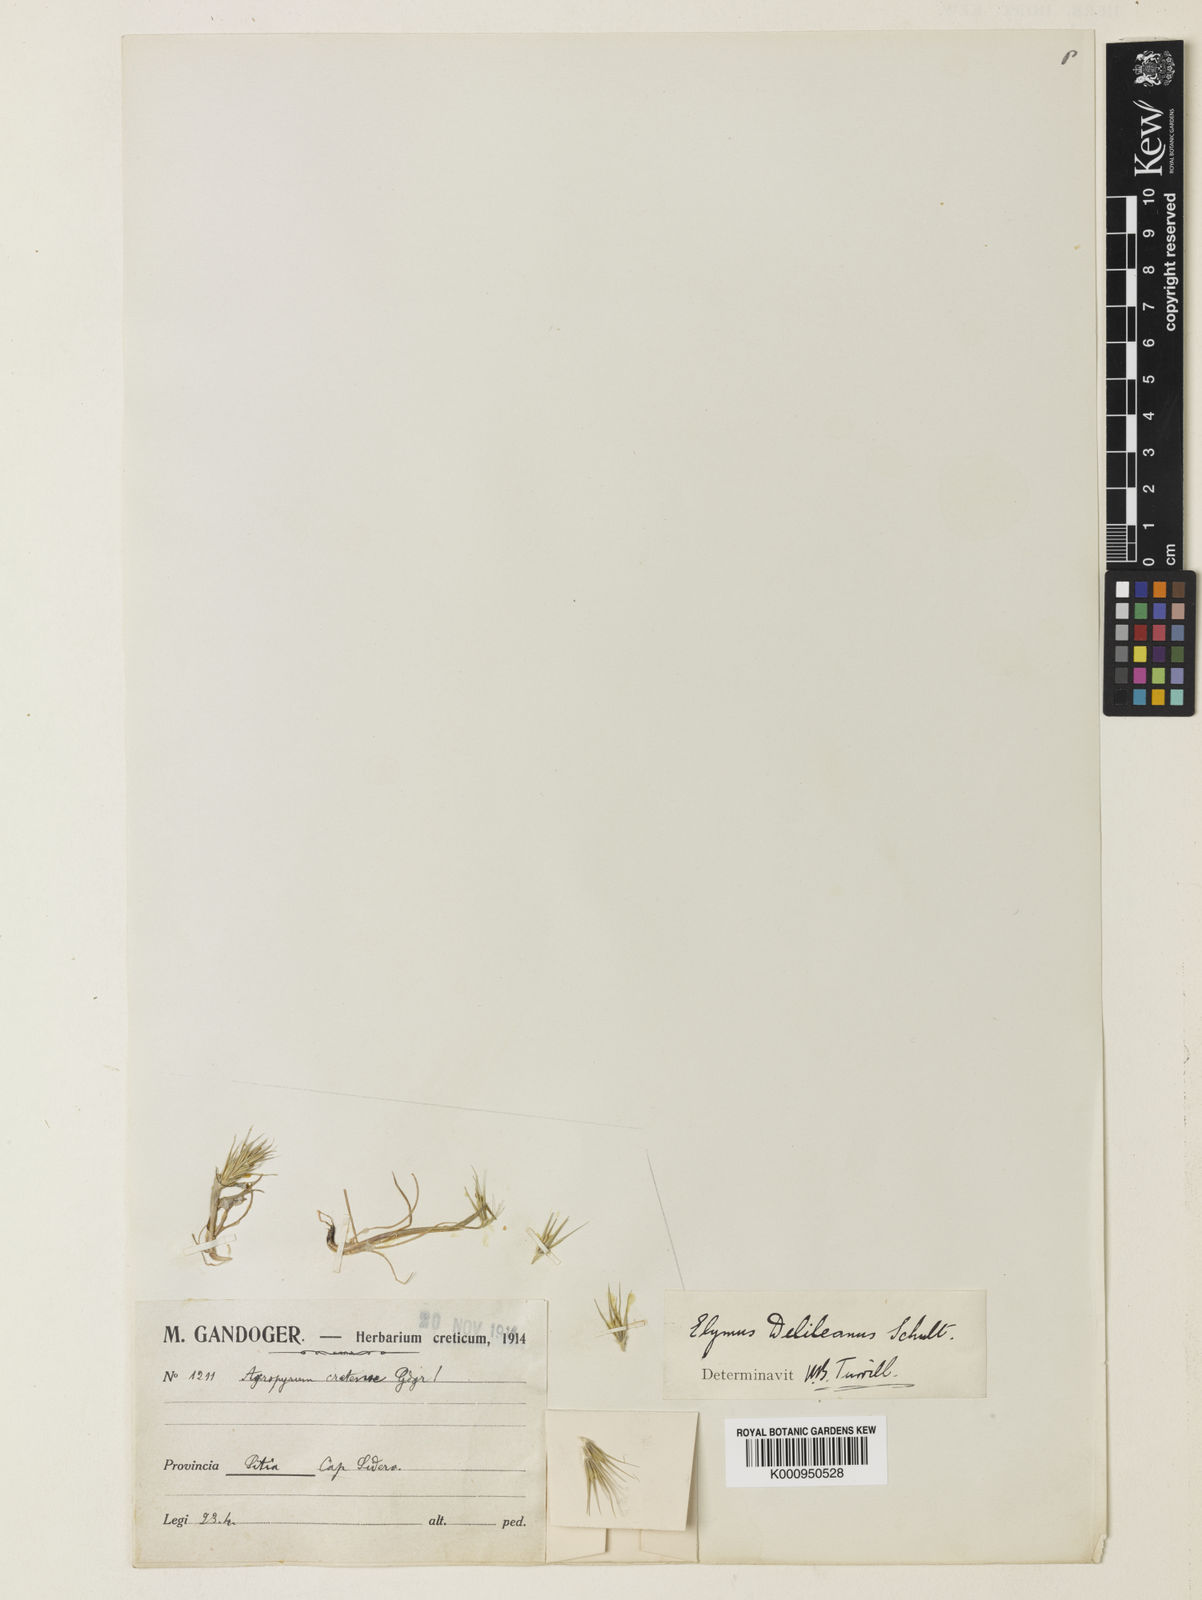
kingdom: Plantae
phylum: Tracheophyta
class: Liliopsida
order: Poales
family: Poaceae
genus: Crithopsis
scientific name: Crithopsis delileana
